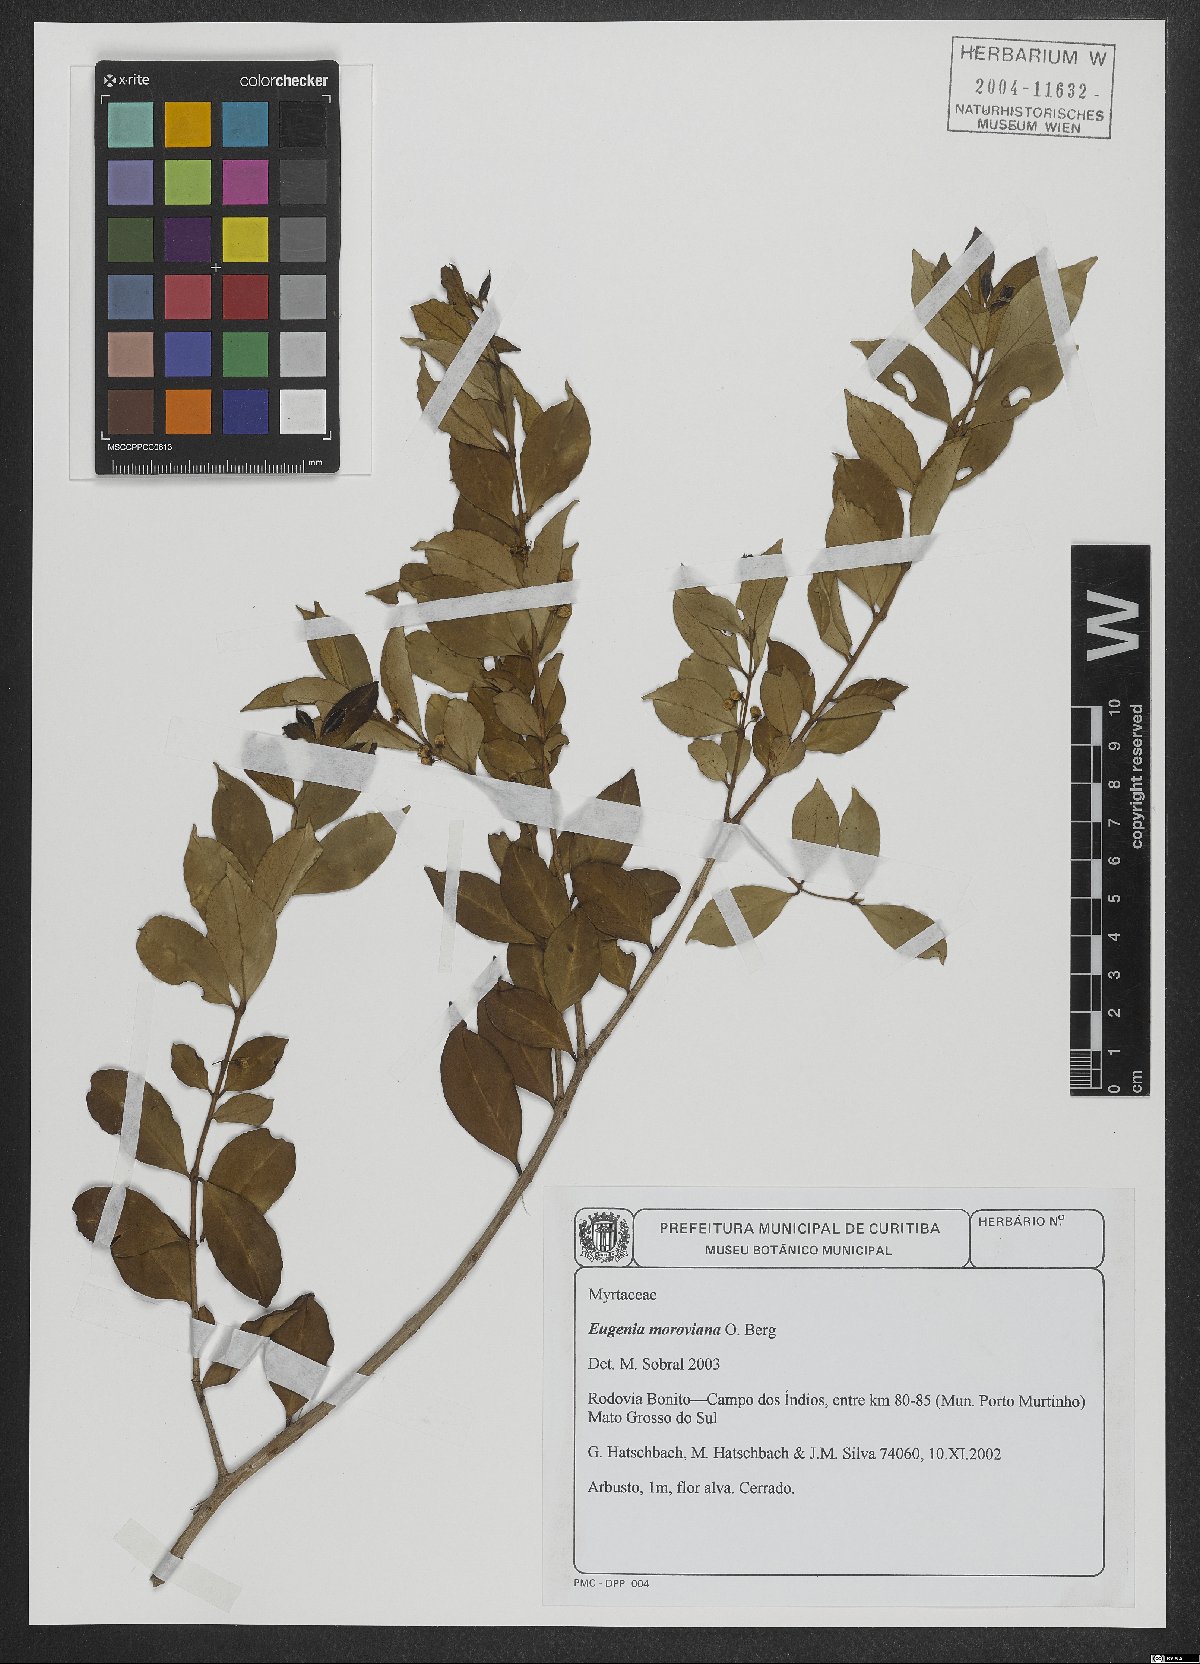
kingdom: Plantae
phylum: Tracheophyta
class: Magnoliopsida
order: Myrtales
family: Myrtaceae
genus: Eugenia
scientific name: Eugenia moraviana
